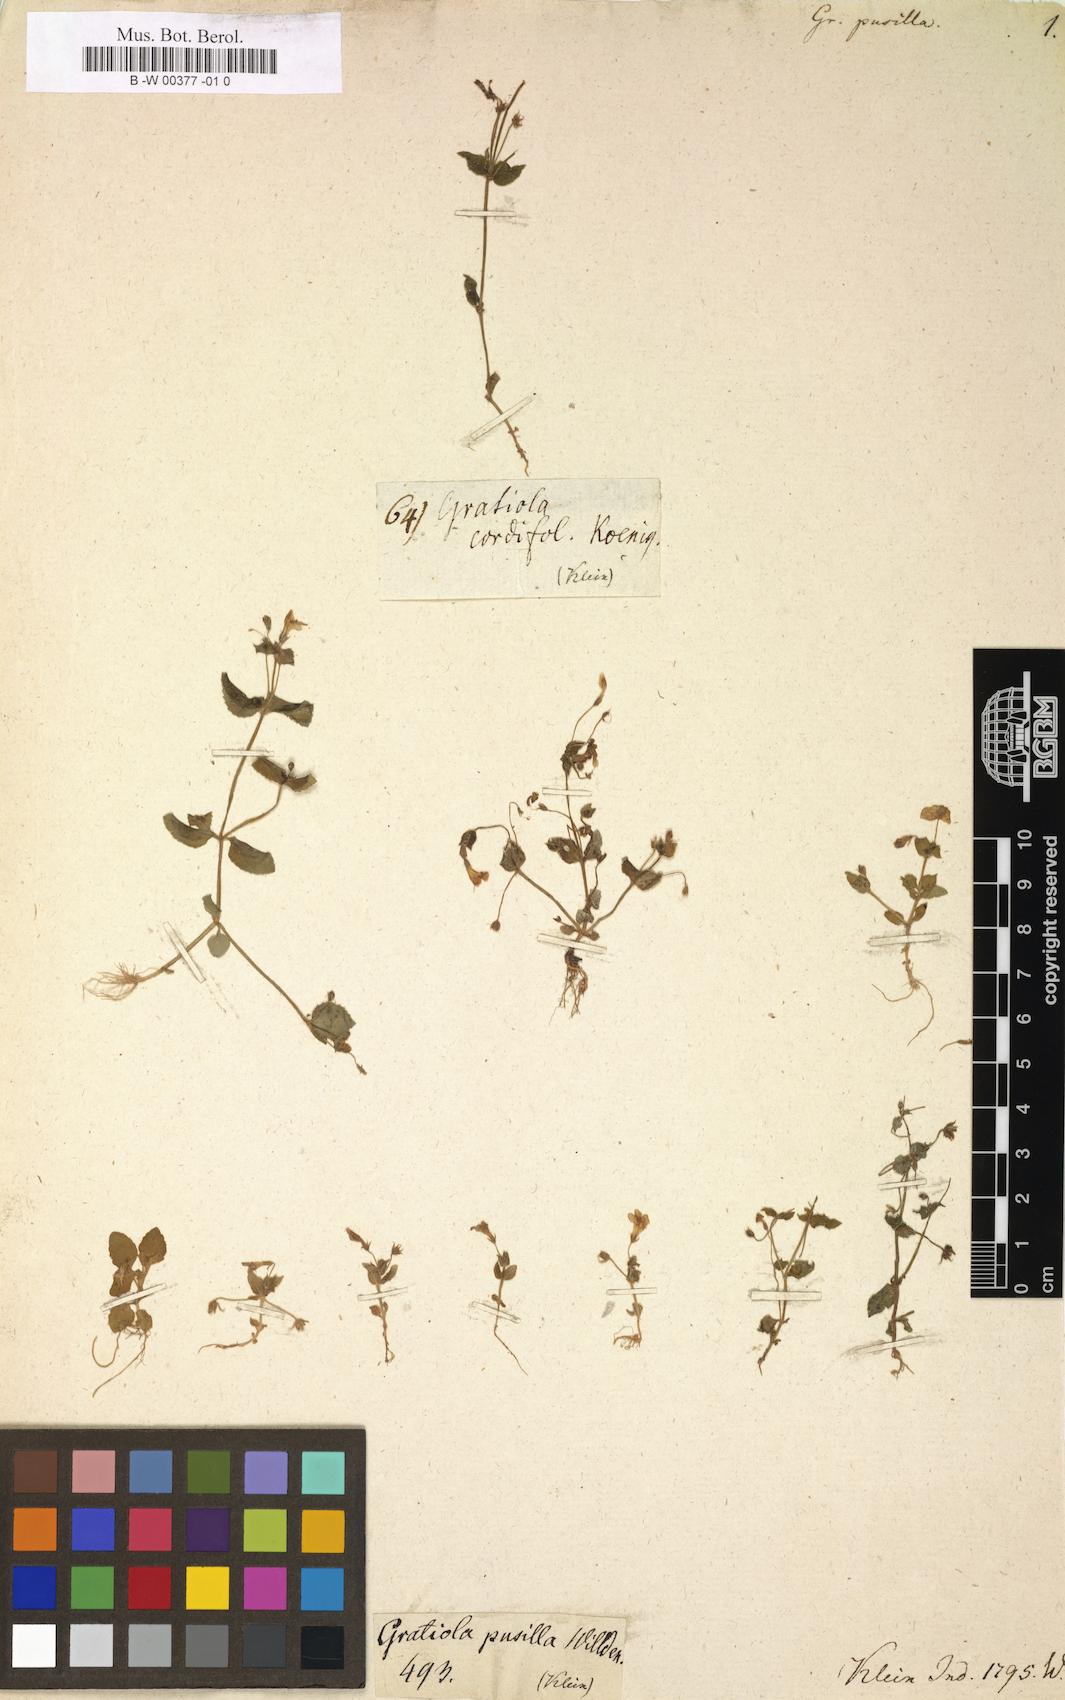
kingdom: Plantae
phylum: Tracheophyta
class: Magnoliopsida
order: Lamiales
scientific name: Lamiales
